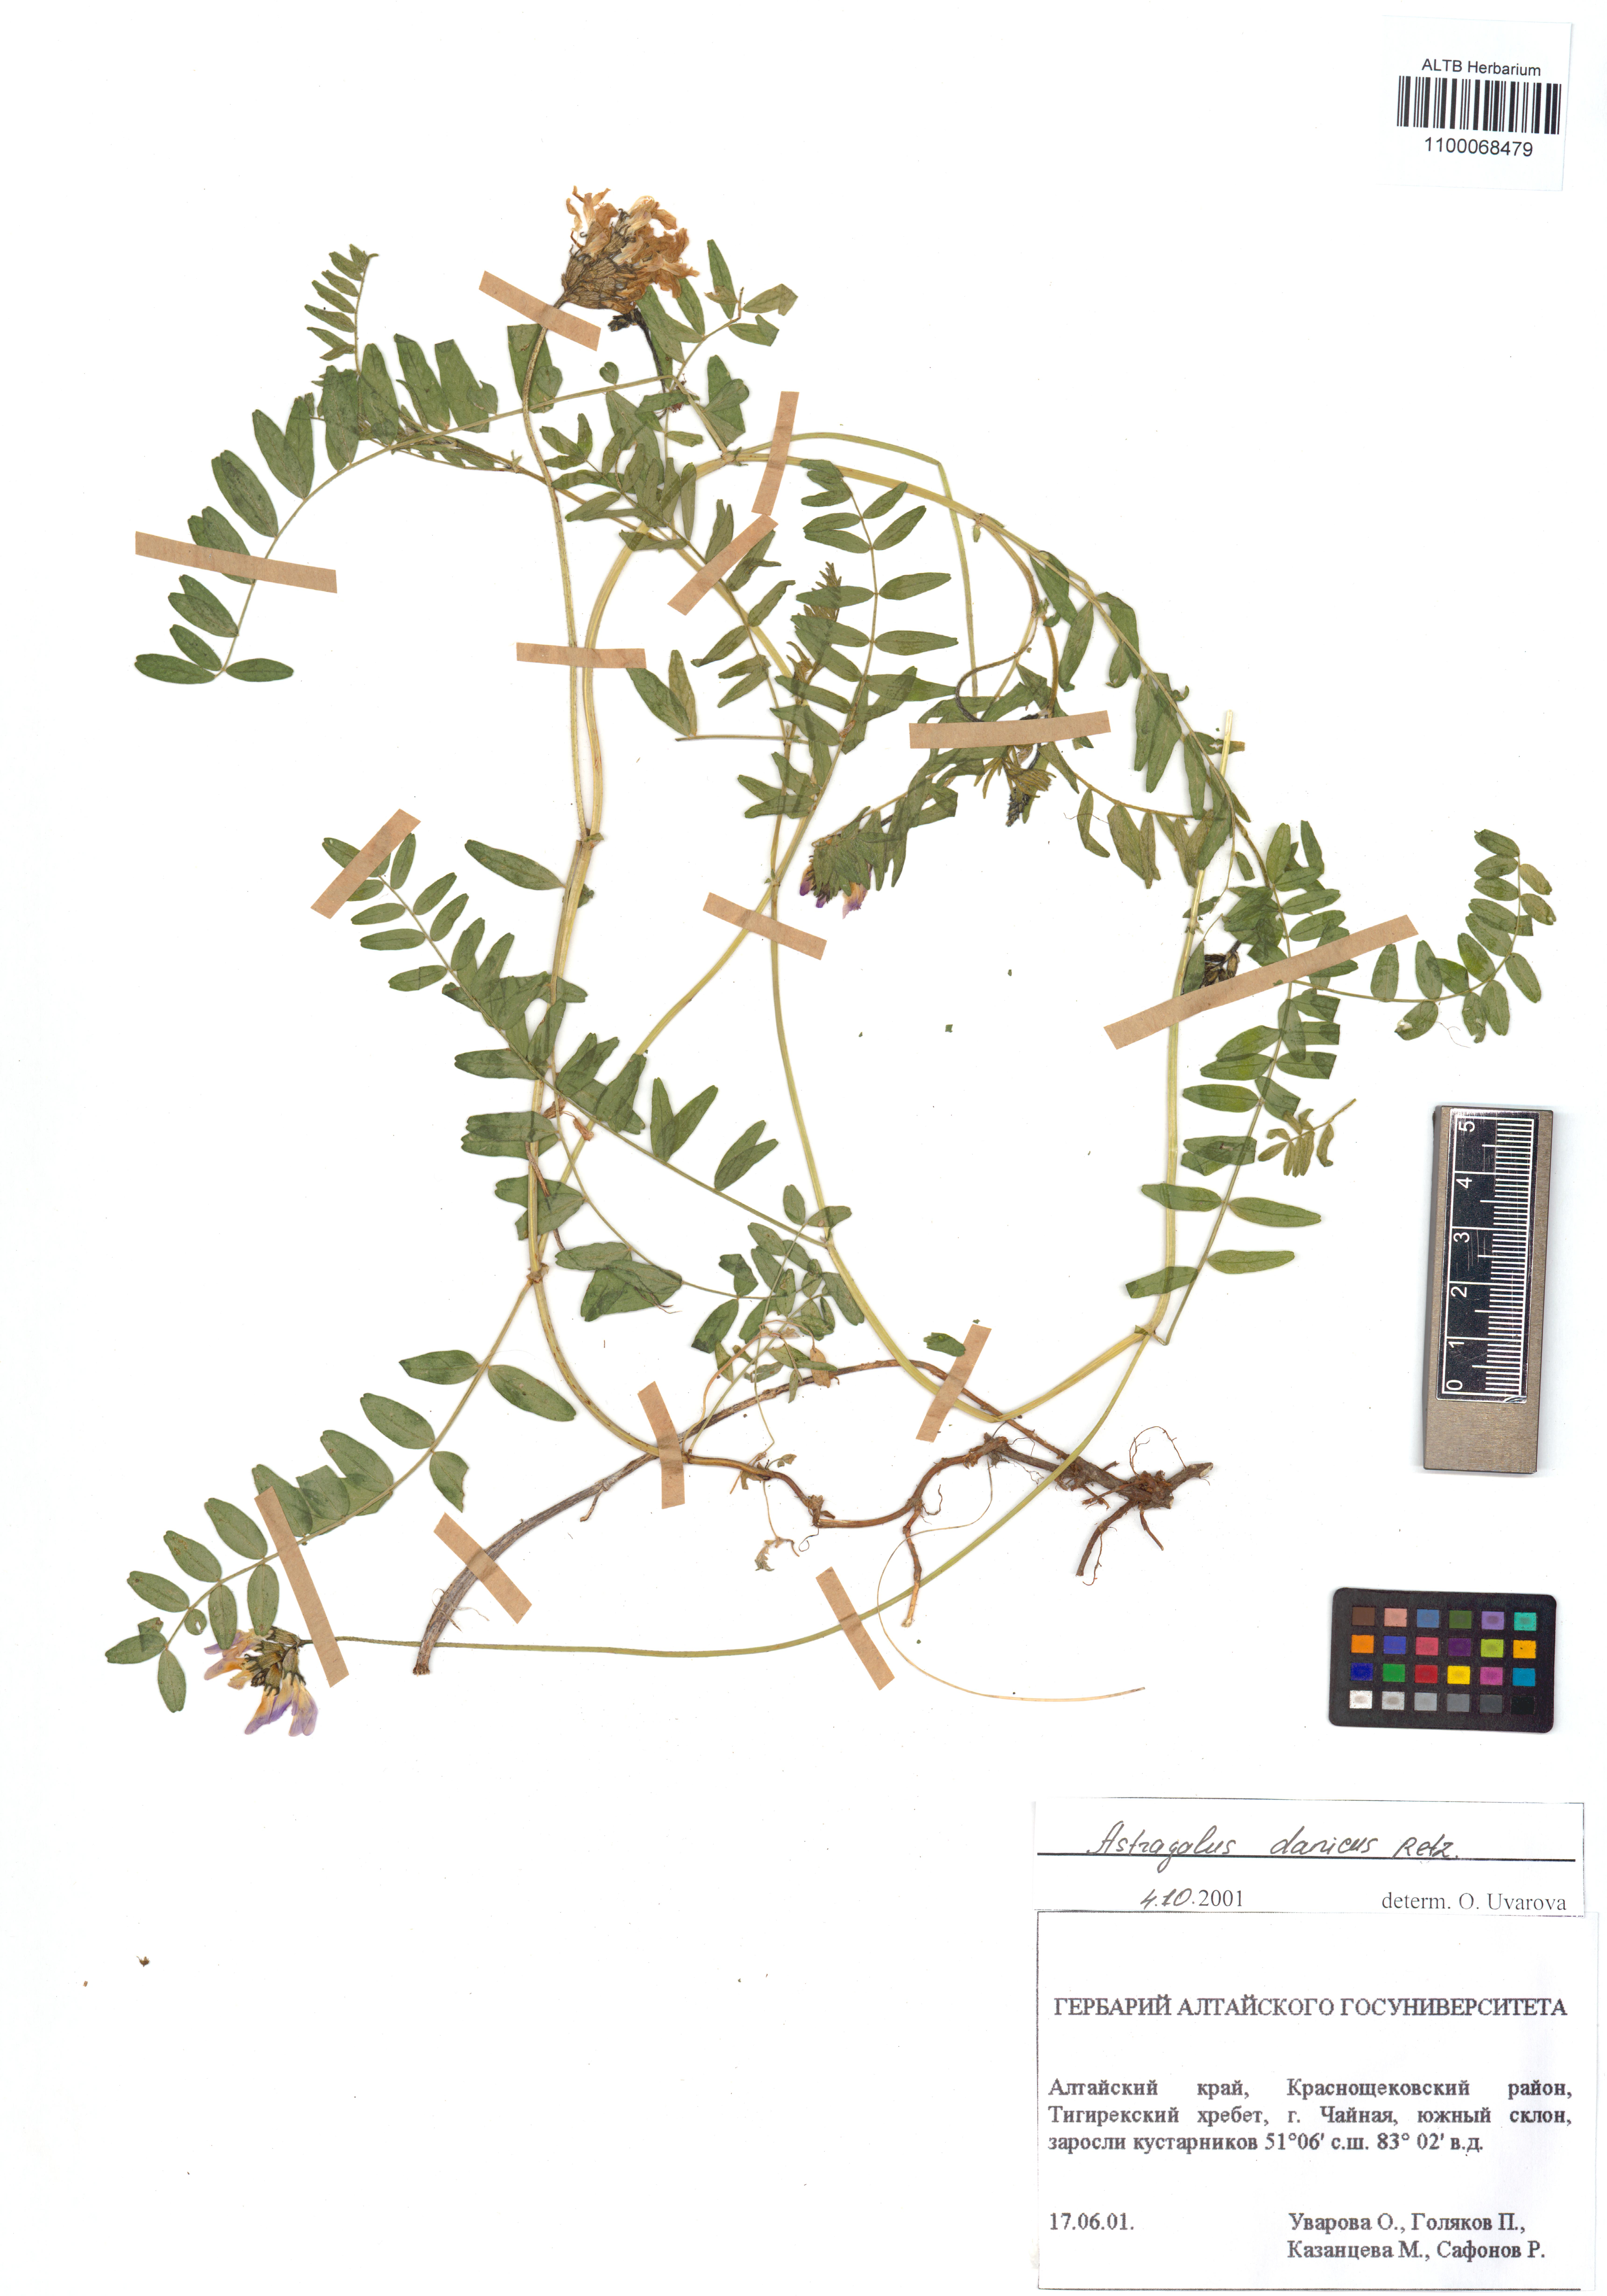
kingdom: Plantae
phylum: Tracheophyta
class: Magnoliopsida
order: Fabales
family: Fabaceae
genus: Astragalus
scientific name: Astragalus danicus
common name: Purple milk-vetch
